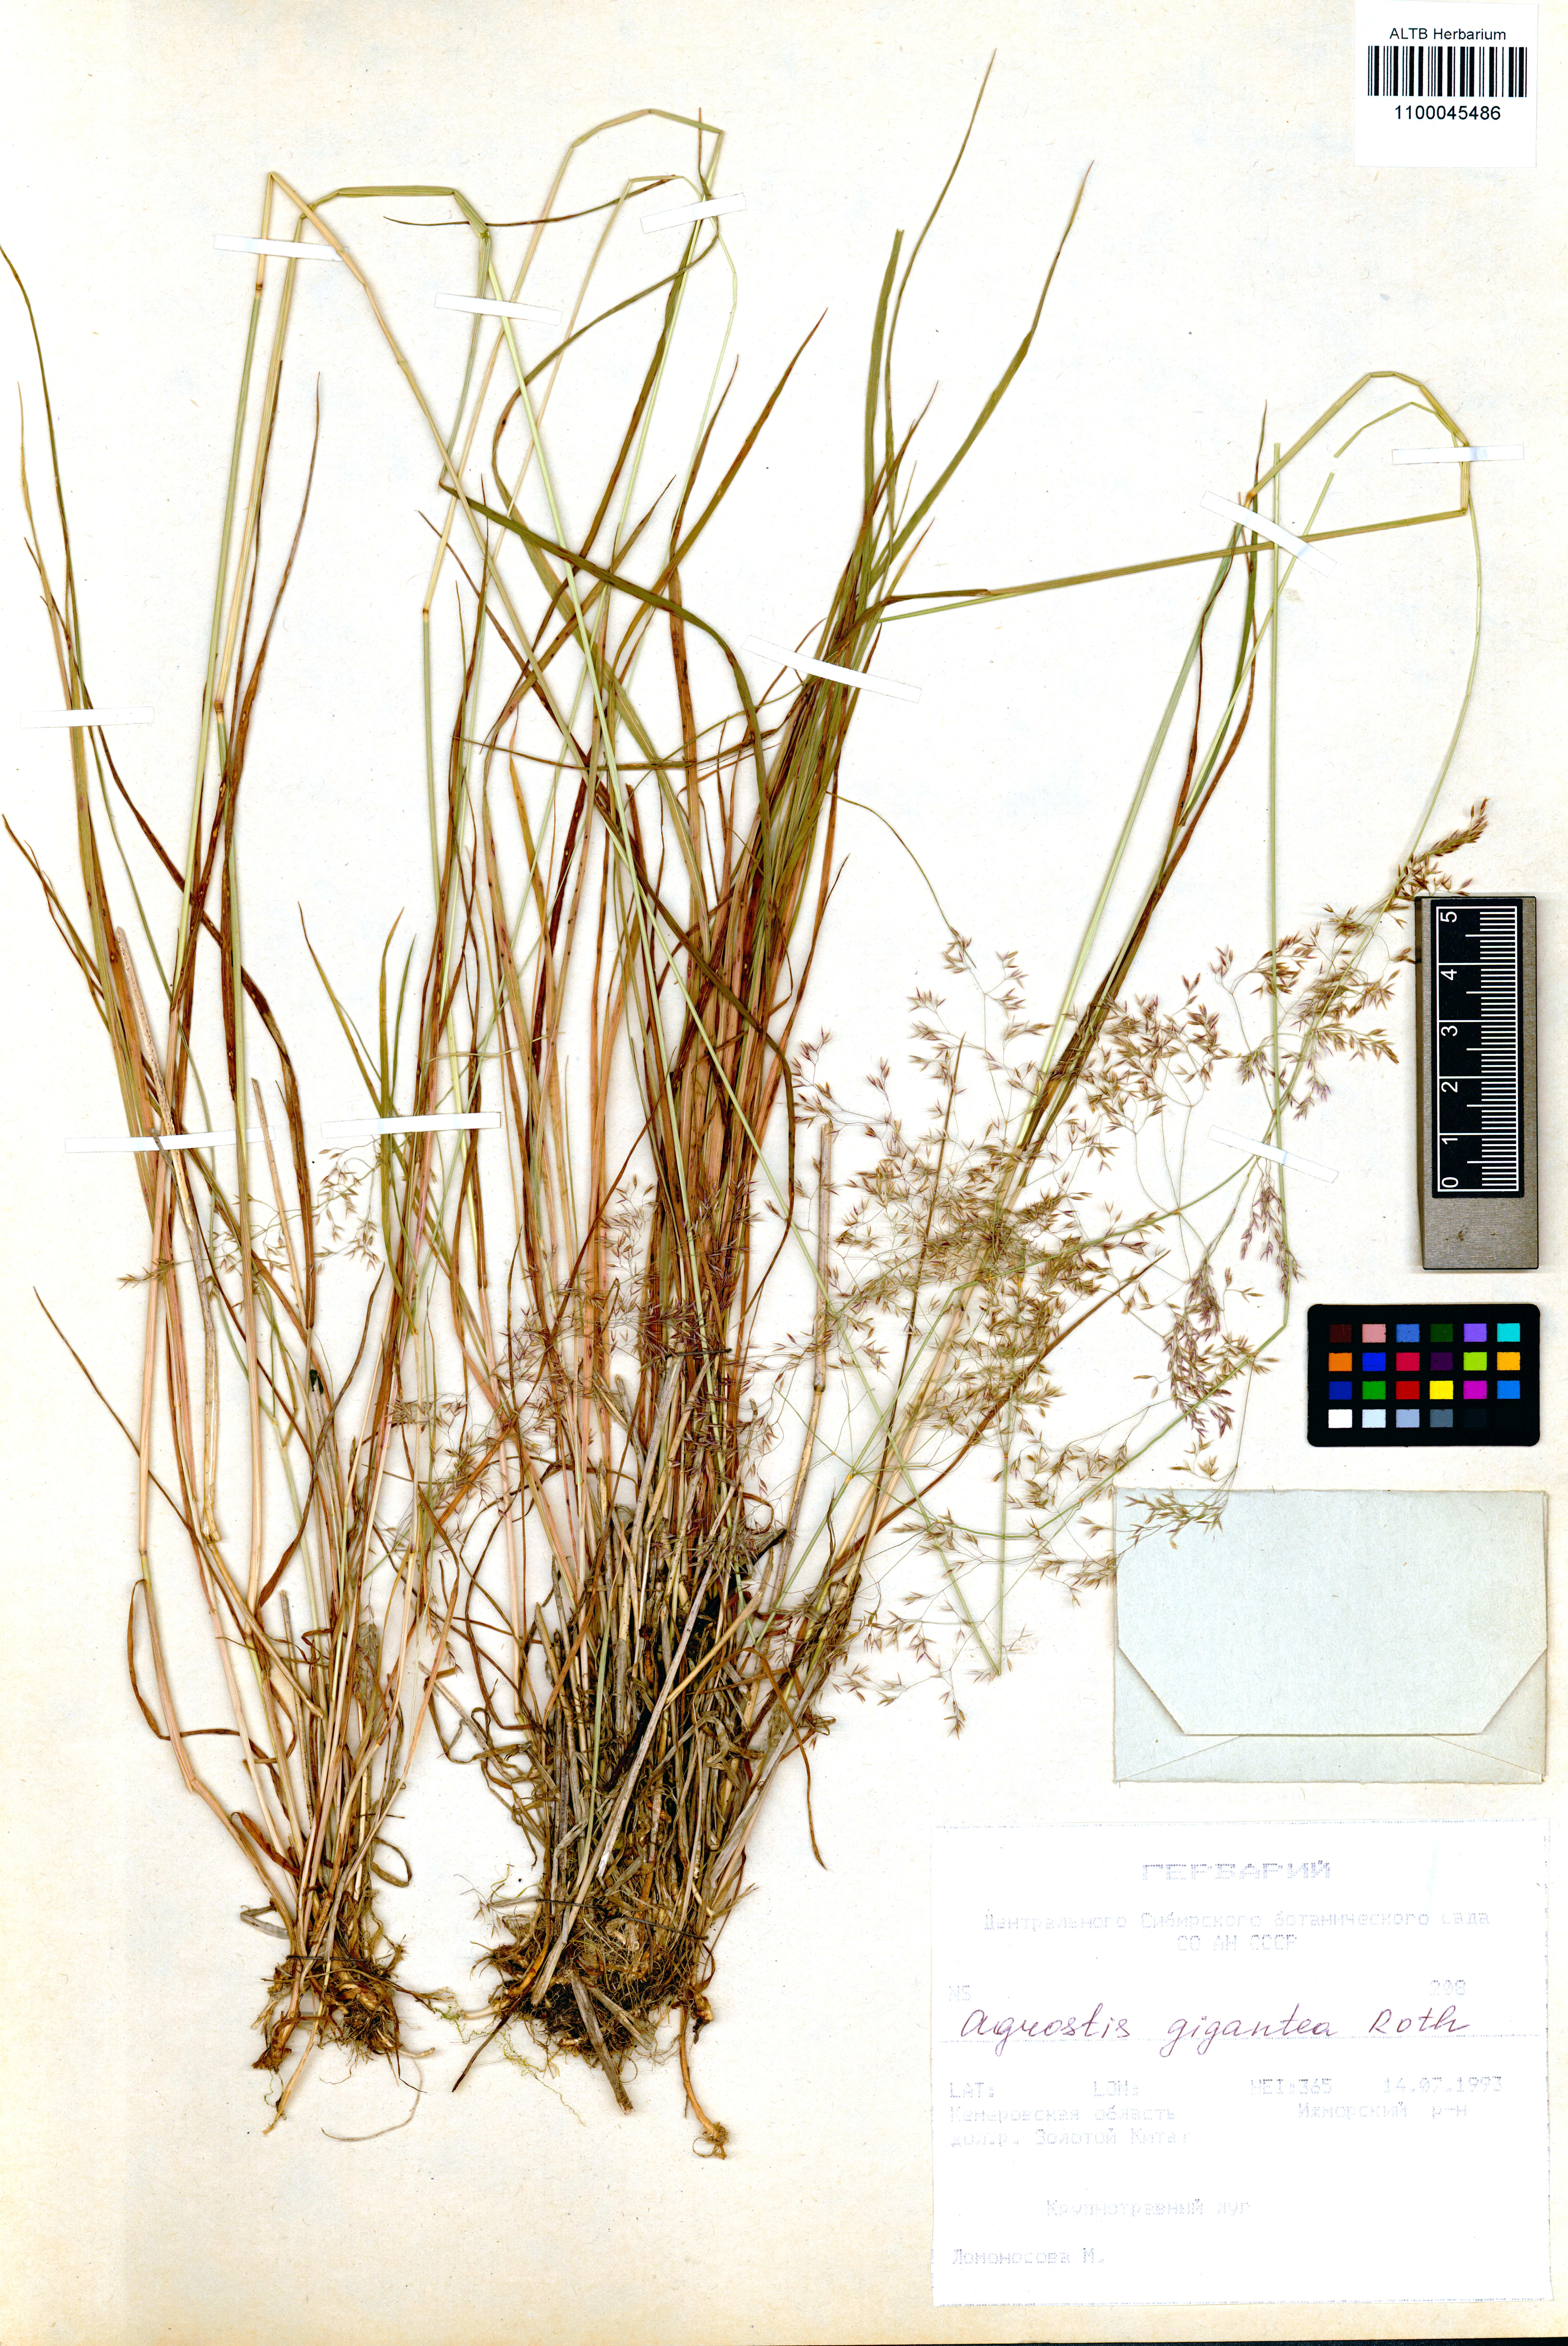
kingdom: Plantae
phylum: Tracheophyta
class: Liliopsida
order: Poales
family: Poaceae
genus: Agrostis
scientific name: Agrostis gigantea
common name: Black bent
